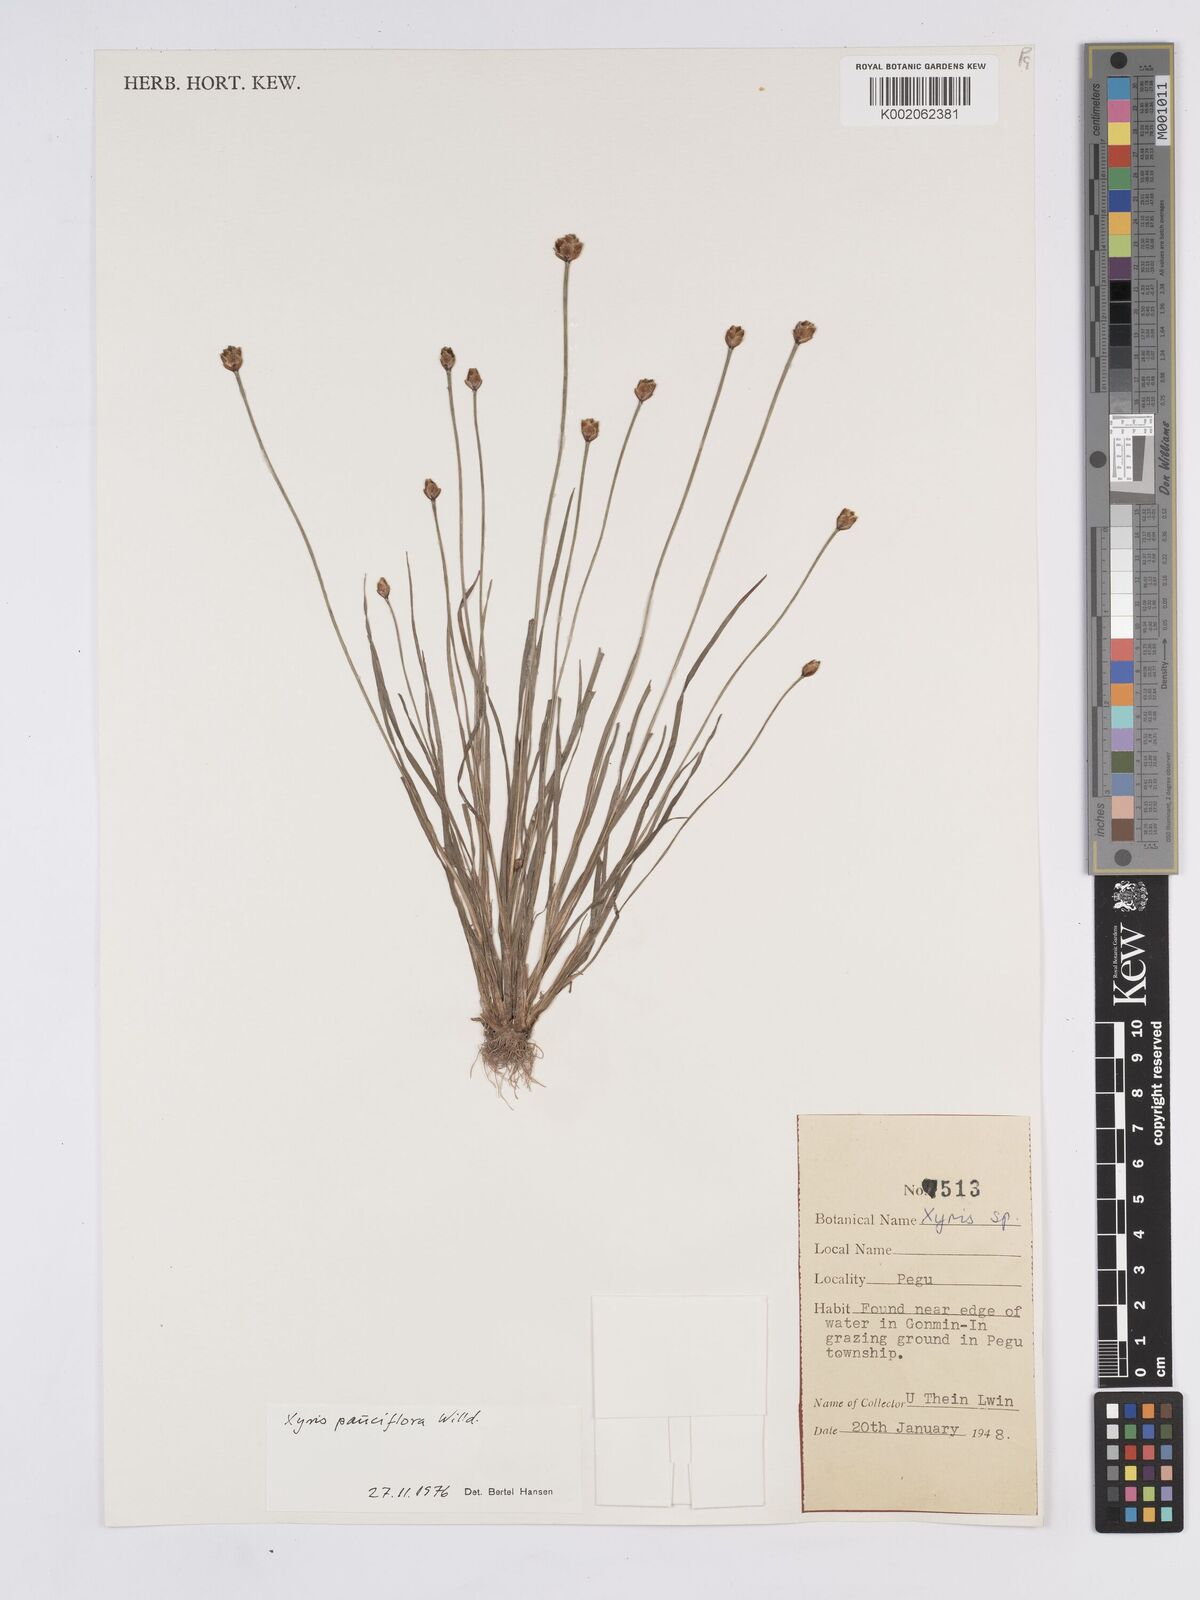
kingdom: Plantae
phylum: Tracheophyta
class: Liliopsida
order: Poales
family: Xyridaceae
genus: Xyris
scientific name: Xyris pauciflora
